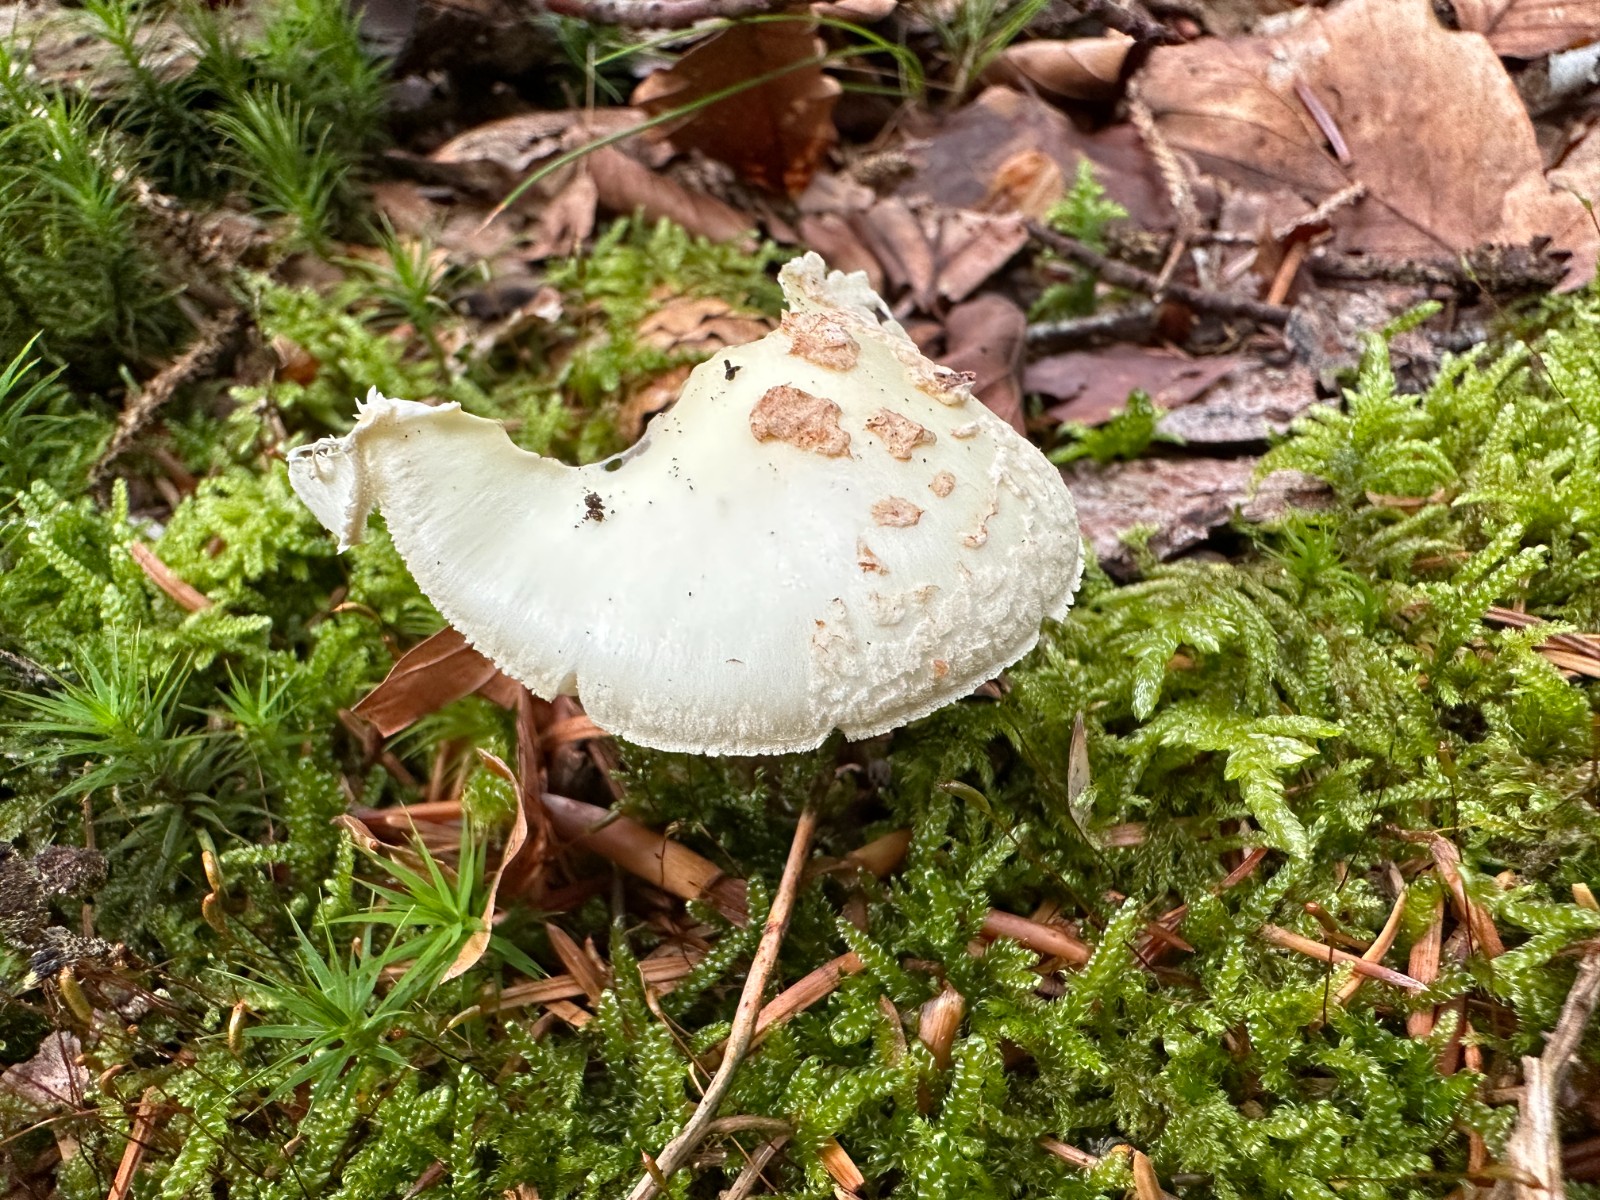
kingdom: Fungi
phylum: Basidiomycota
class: Agaricomycetes
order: Agaricales
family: Amanitaceae
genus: Amanita
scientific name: Amanita citrina
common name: kugleknoldet fluesvamp
